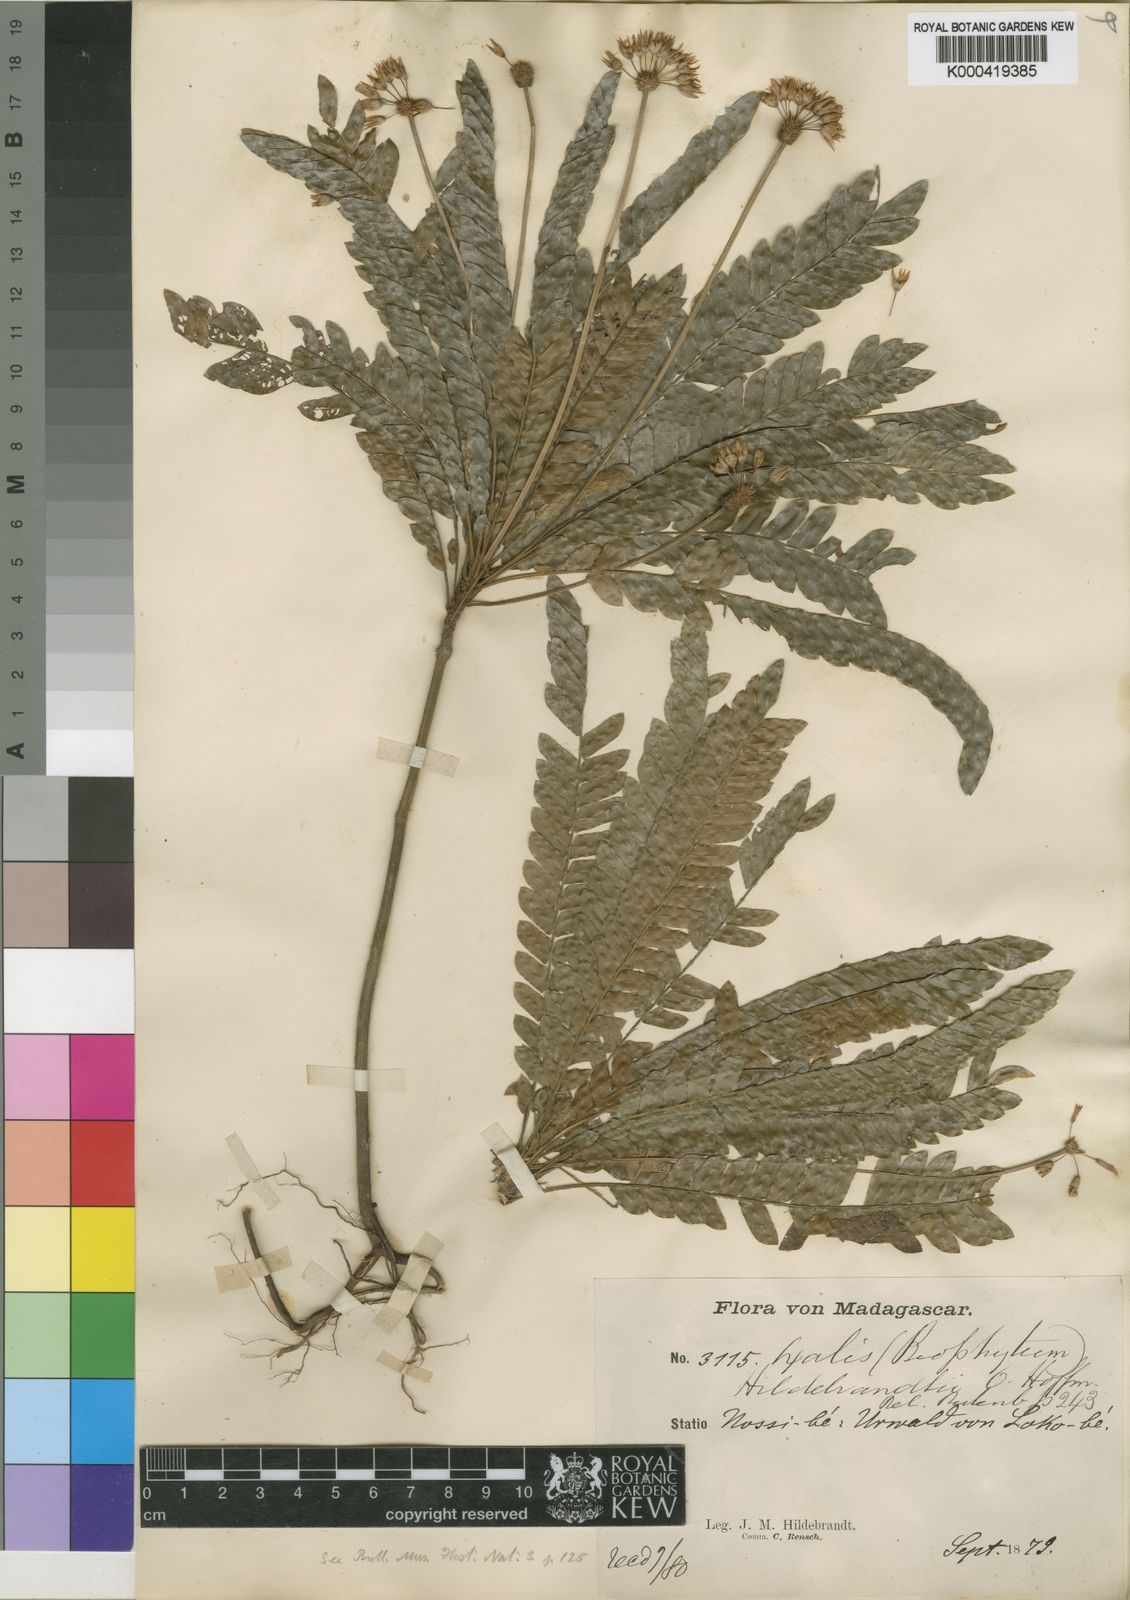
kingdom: Plantae
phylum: Tracheophyta
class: Magnoliopsida
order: Oxalidales
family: Oxalidaceae
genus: Oxalis
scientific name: Oxalis xiphophylla
